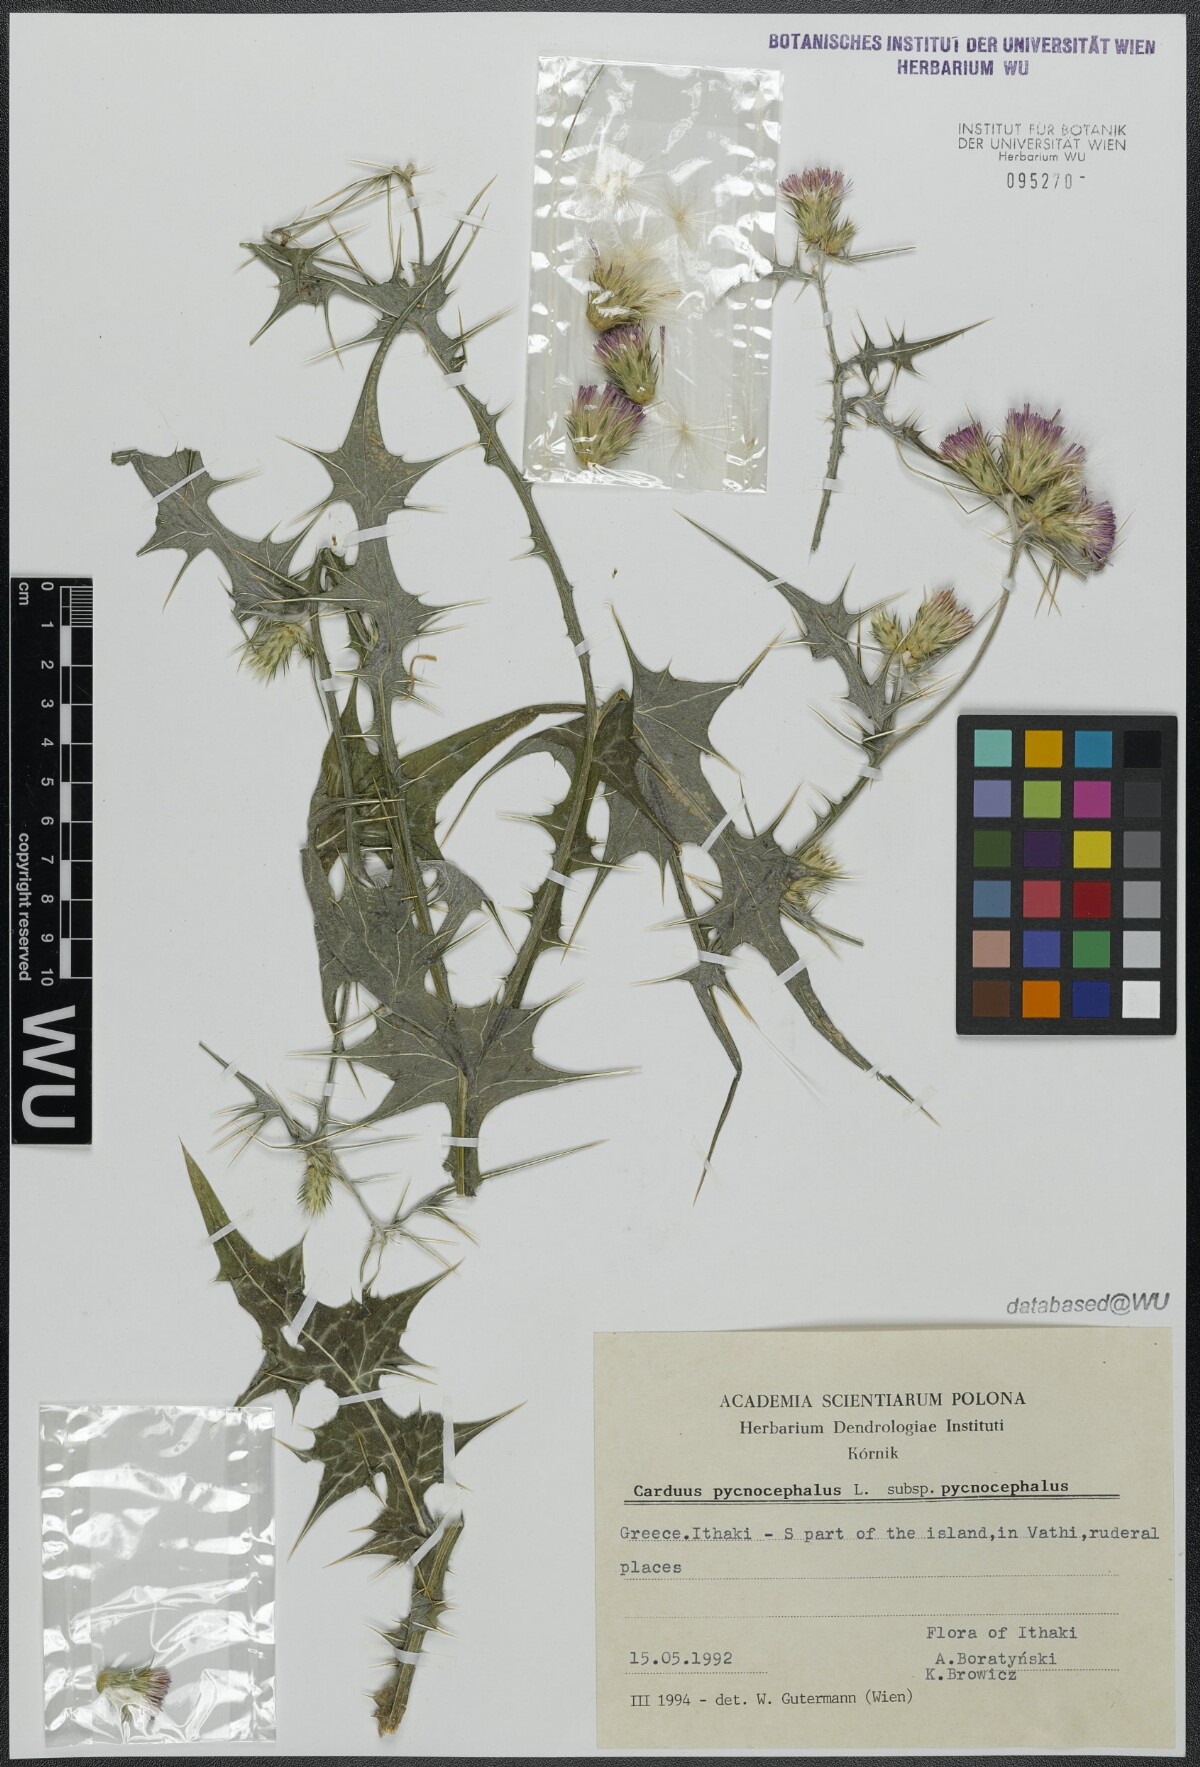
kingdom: Plantae
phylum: Tracheophyta
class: Magnoliopsida
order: Asterales
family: Asteraceae
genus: Carduus
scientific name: Carduus pycnocephalus
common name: Plymouth thistle
